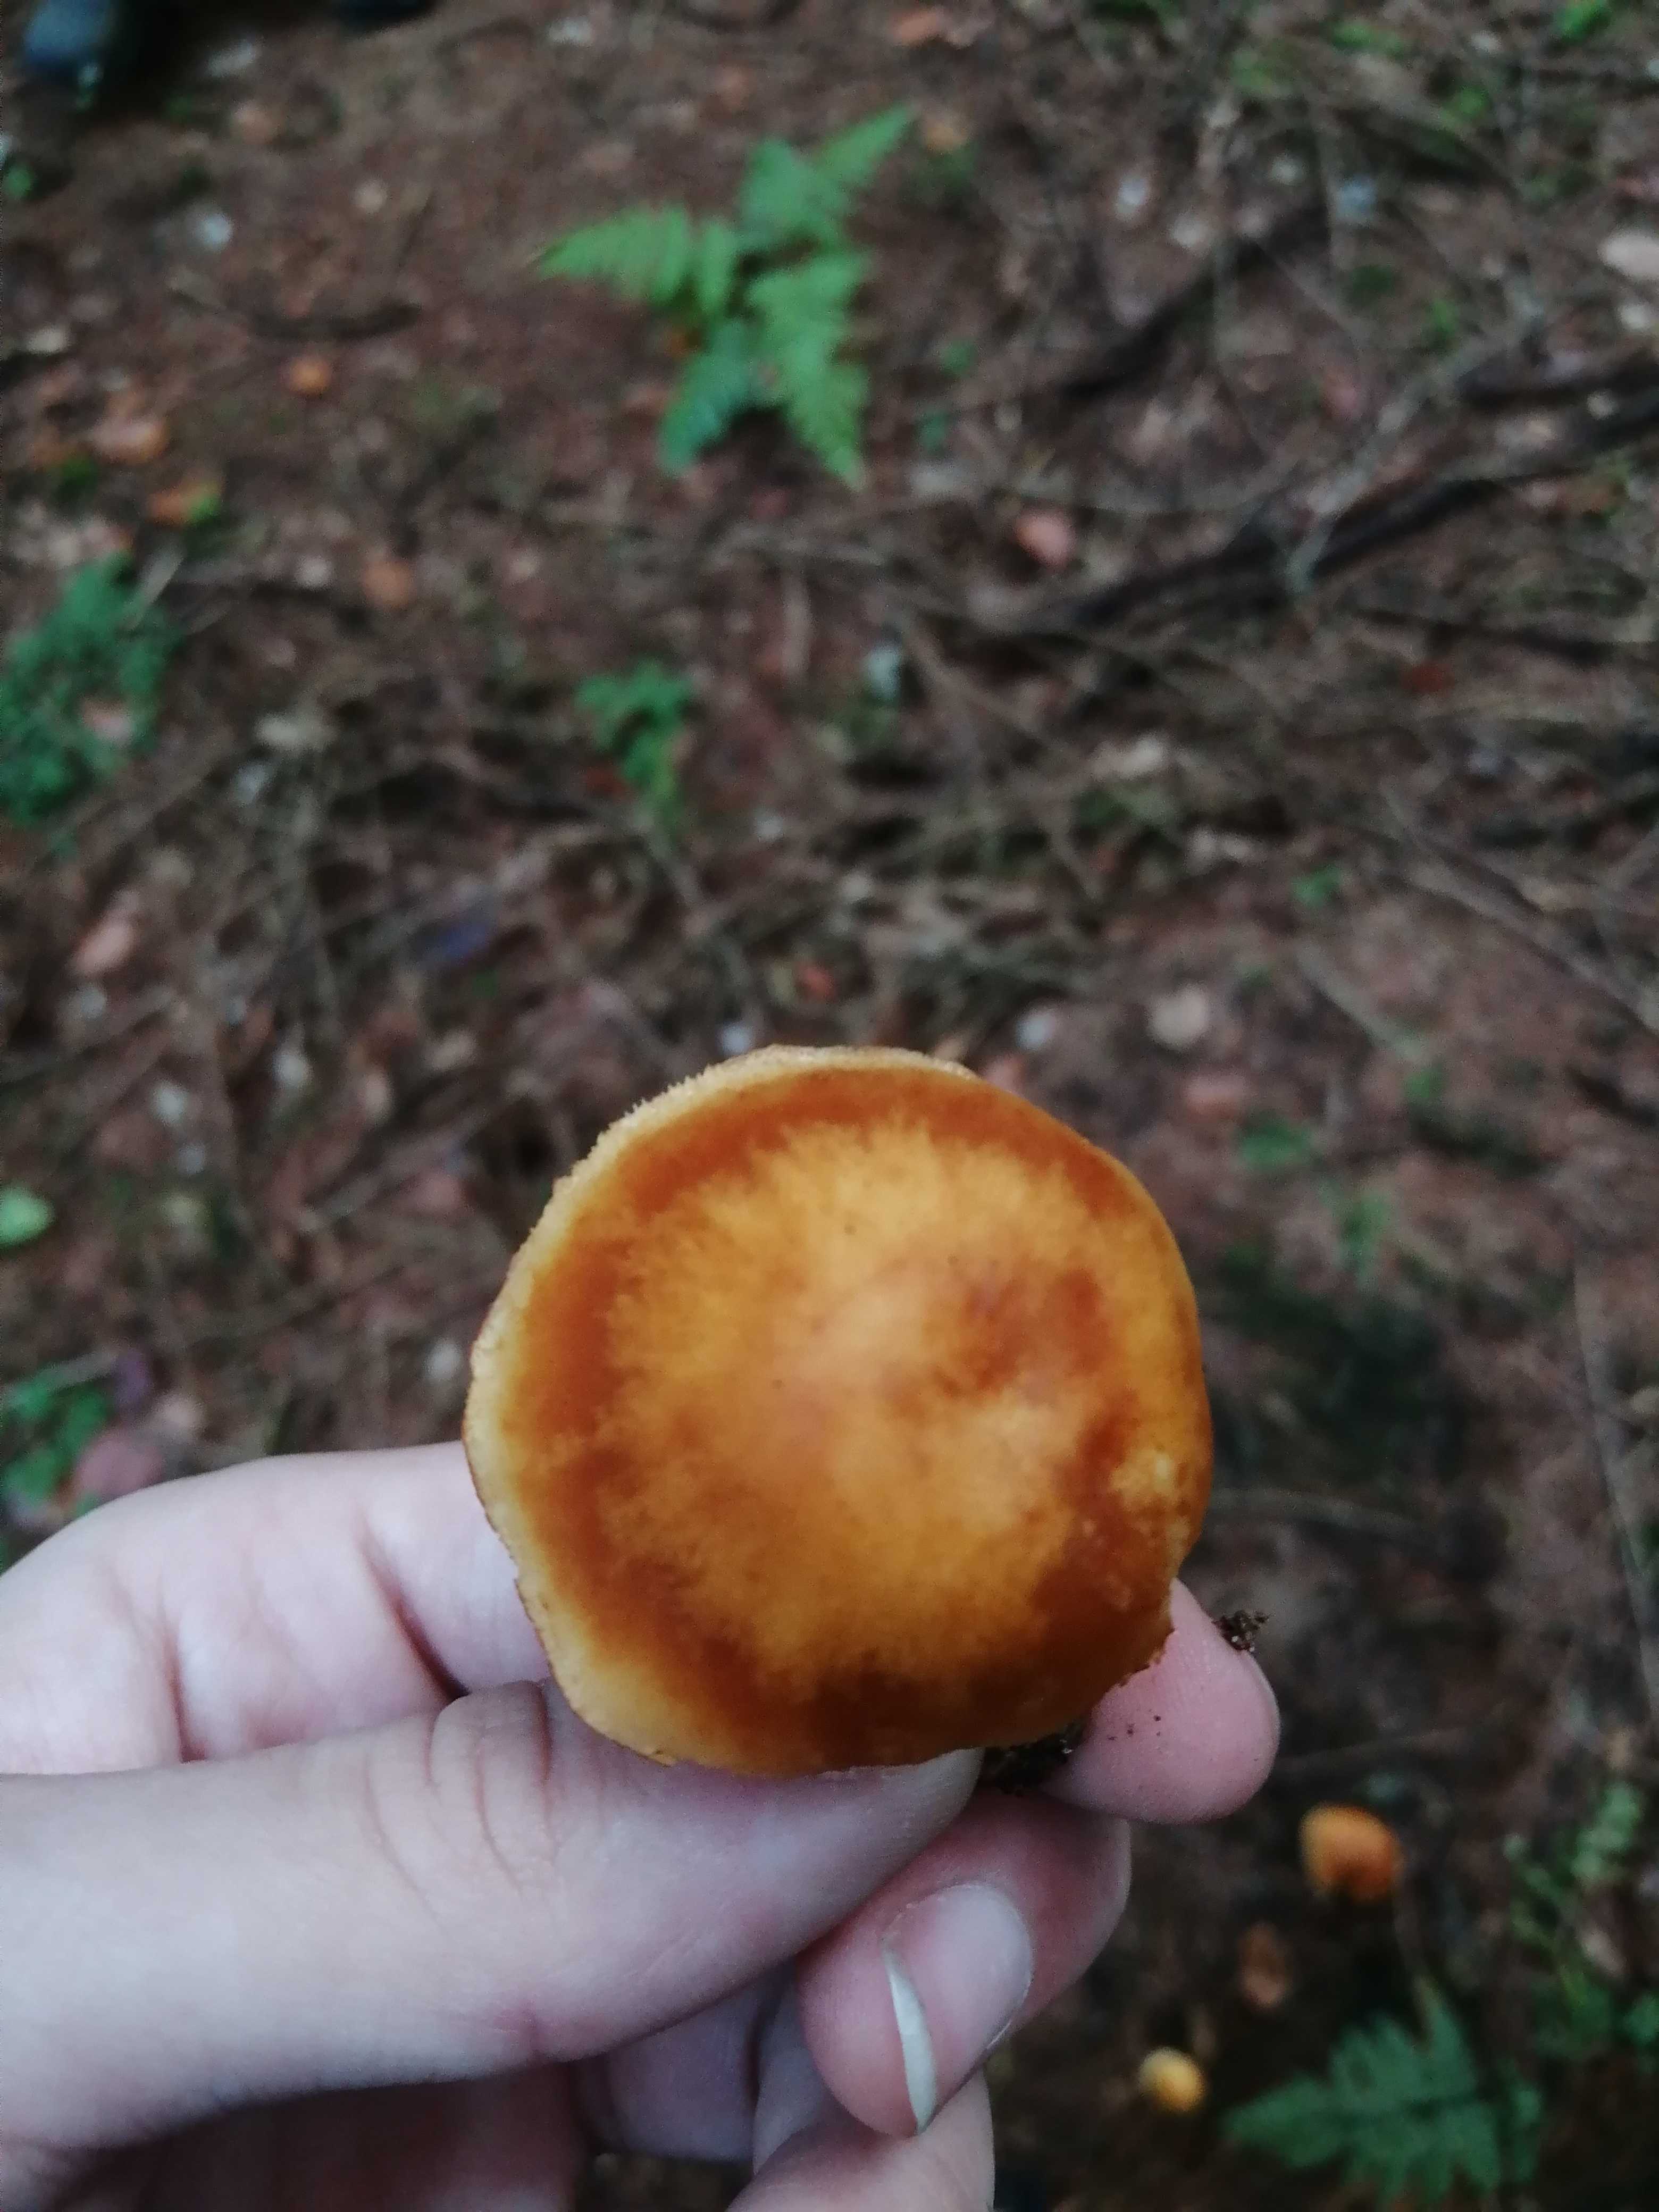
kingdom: Fungi
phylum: Basidiomycota
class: Agaricomycetes
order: Agaricales
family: Hymenogastraceae
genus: Gymnopilus
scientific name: Gymnopilus penetrans
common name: plettet flammehat
